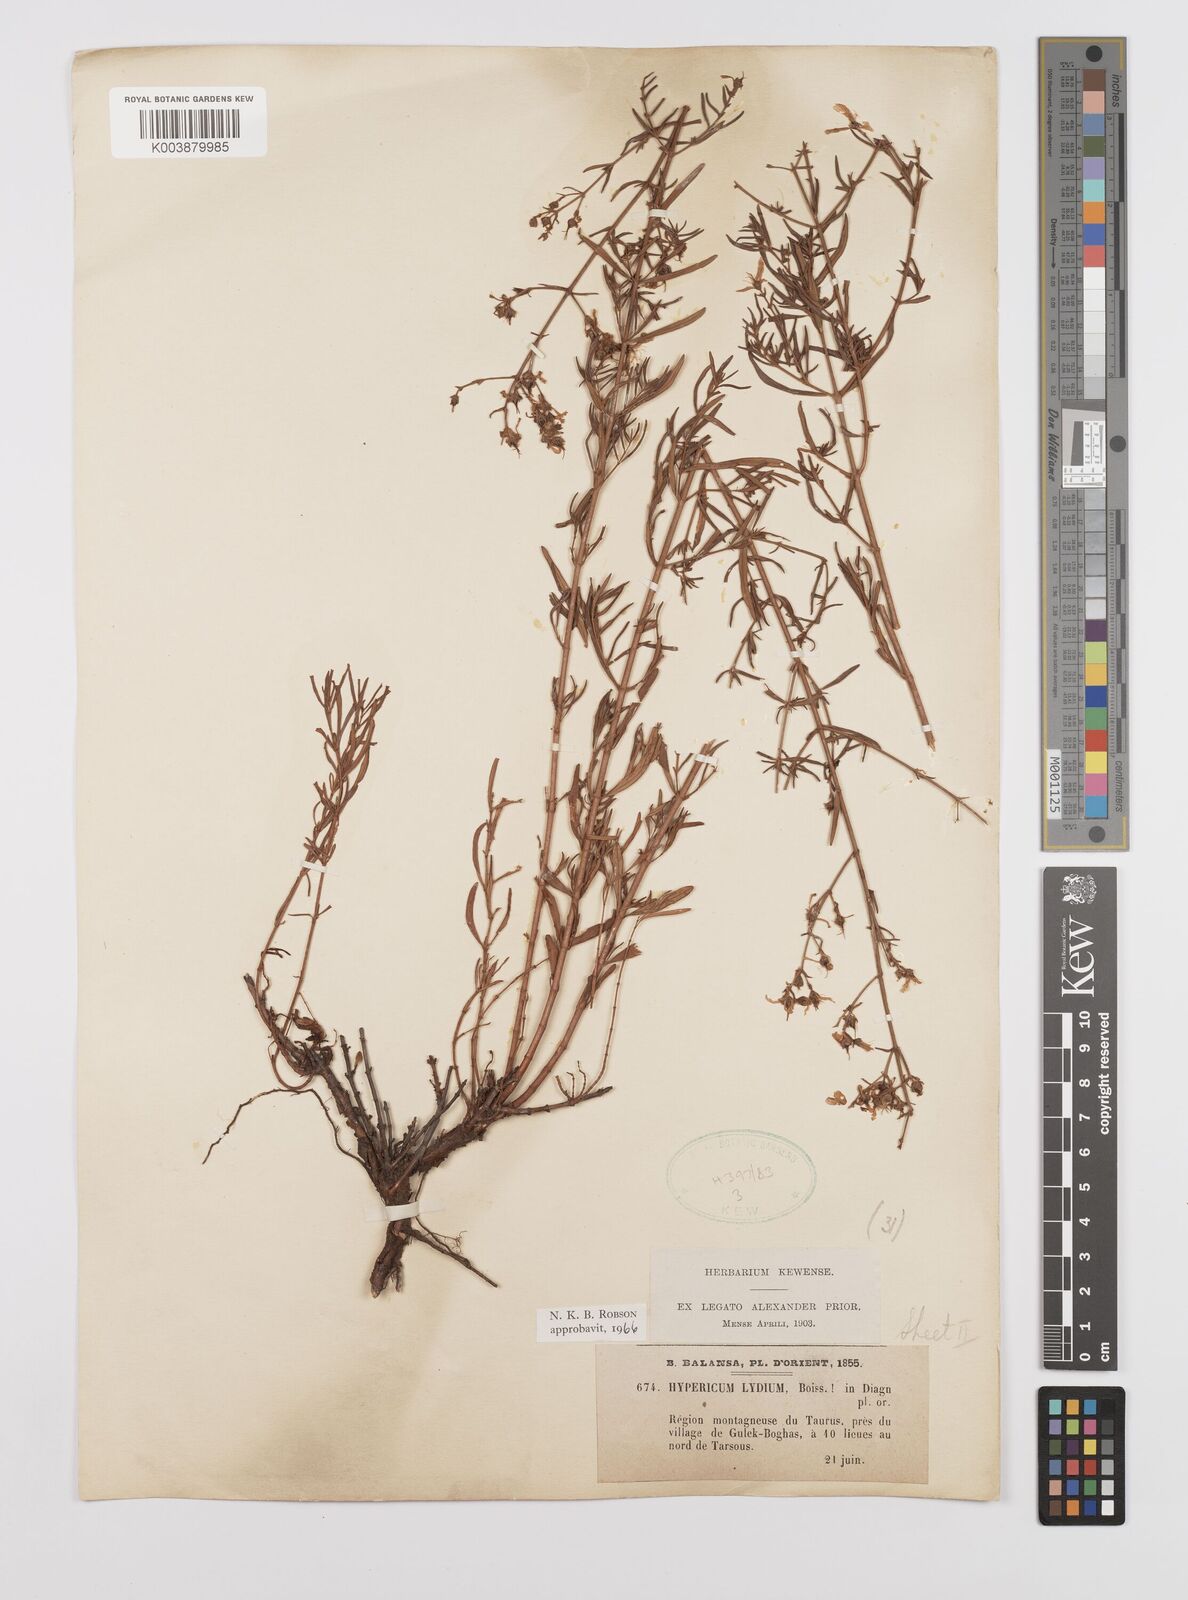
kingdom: Plantae
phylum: Tracheophyta
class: Magnoliopsida
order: Malpighiales
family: Hypericaceae
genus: Hypericum
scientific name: Hypericum lydium
